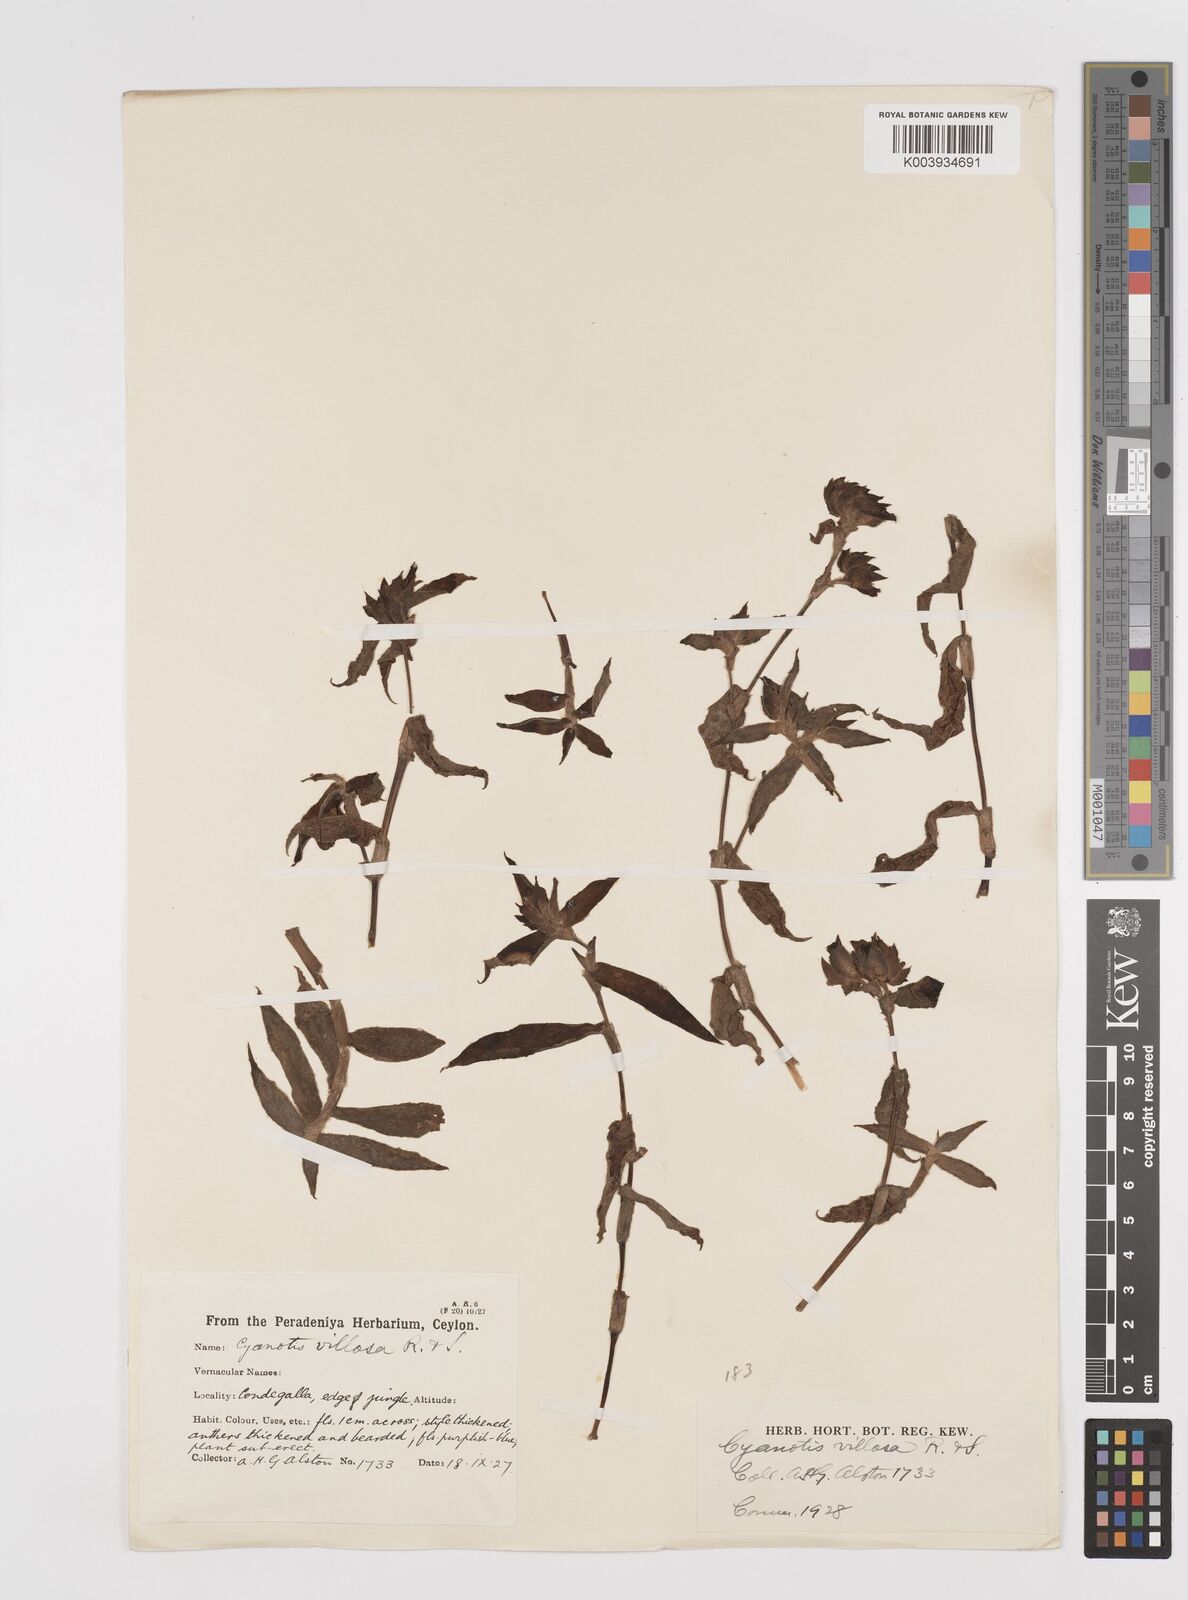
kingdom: Plantae
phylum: Tracheophyta
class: Liliopsida
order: Commelinales
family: Commelinaceae
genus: Cyanotis
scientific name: Cyanotis villosa
